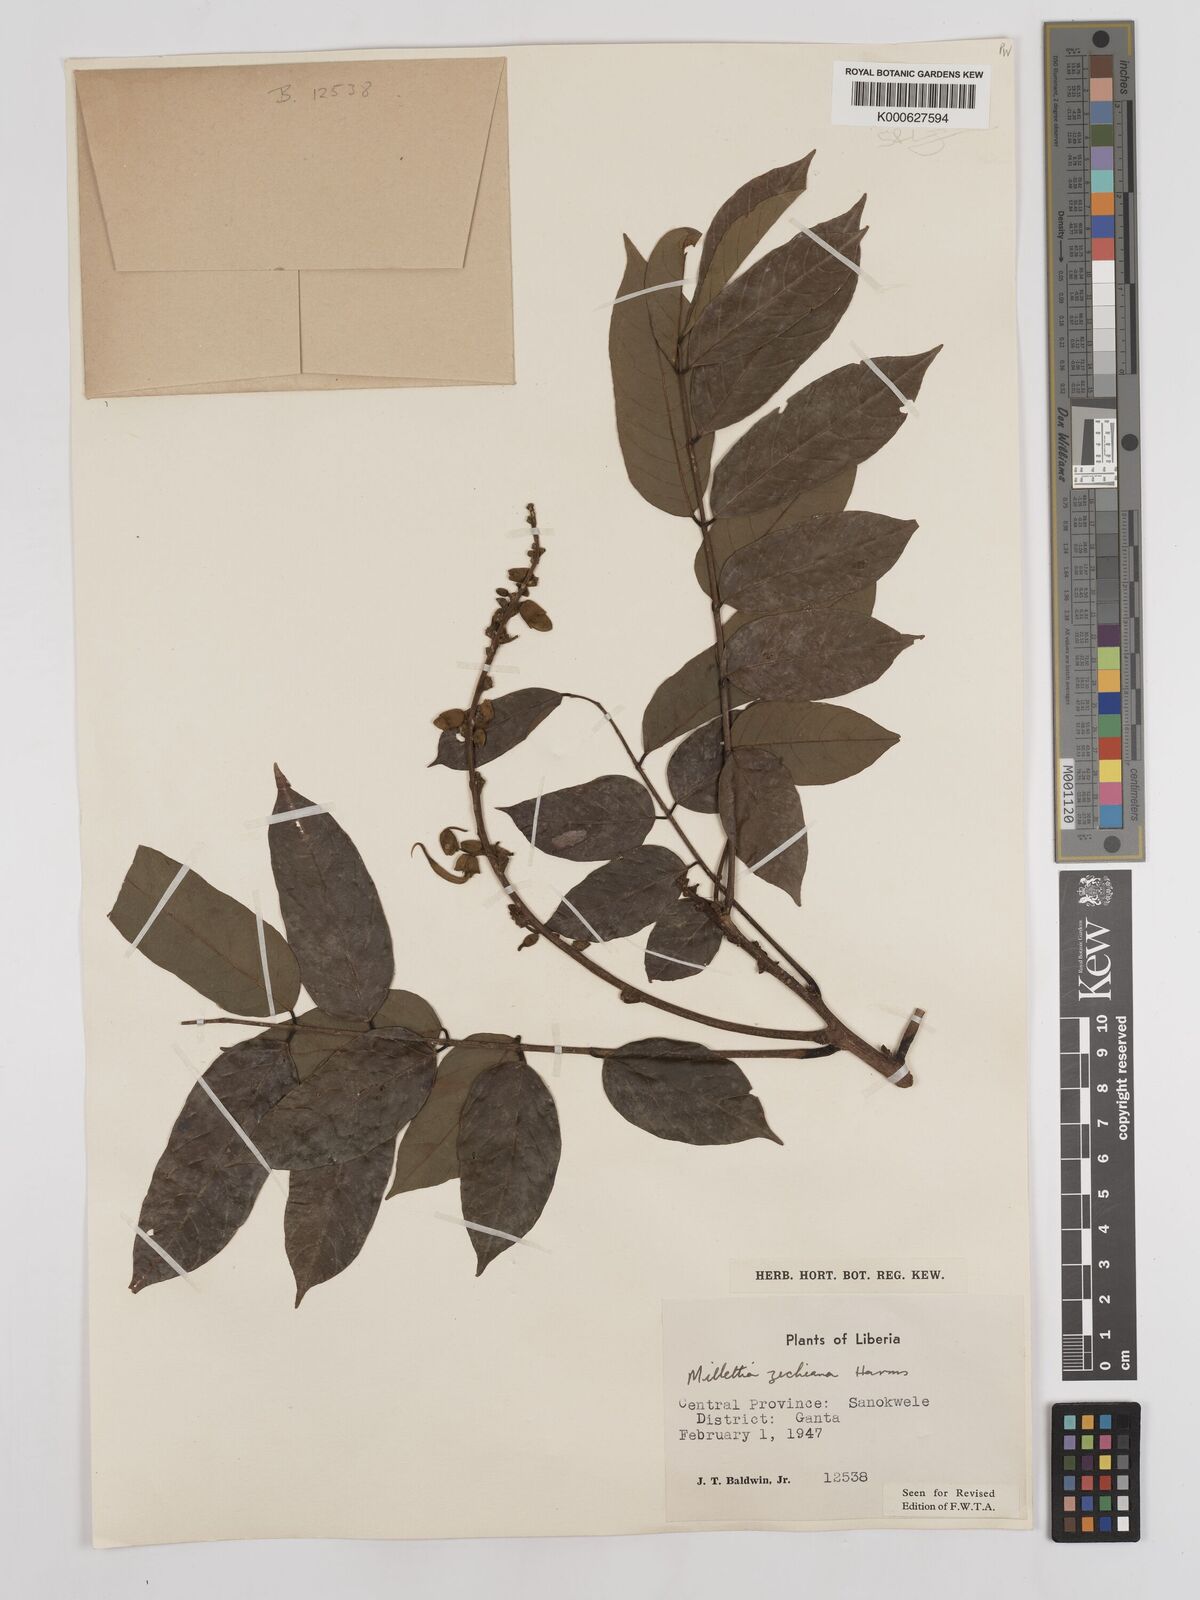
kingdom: Plantae
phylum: Tracheophyta
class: Magnoliopsida
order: Fabales
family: Fabaceae
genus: Millettia
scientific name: Millettia zechiana
